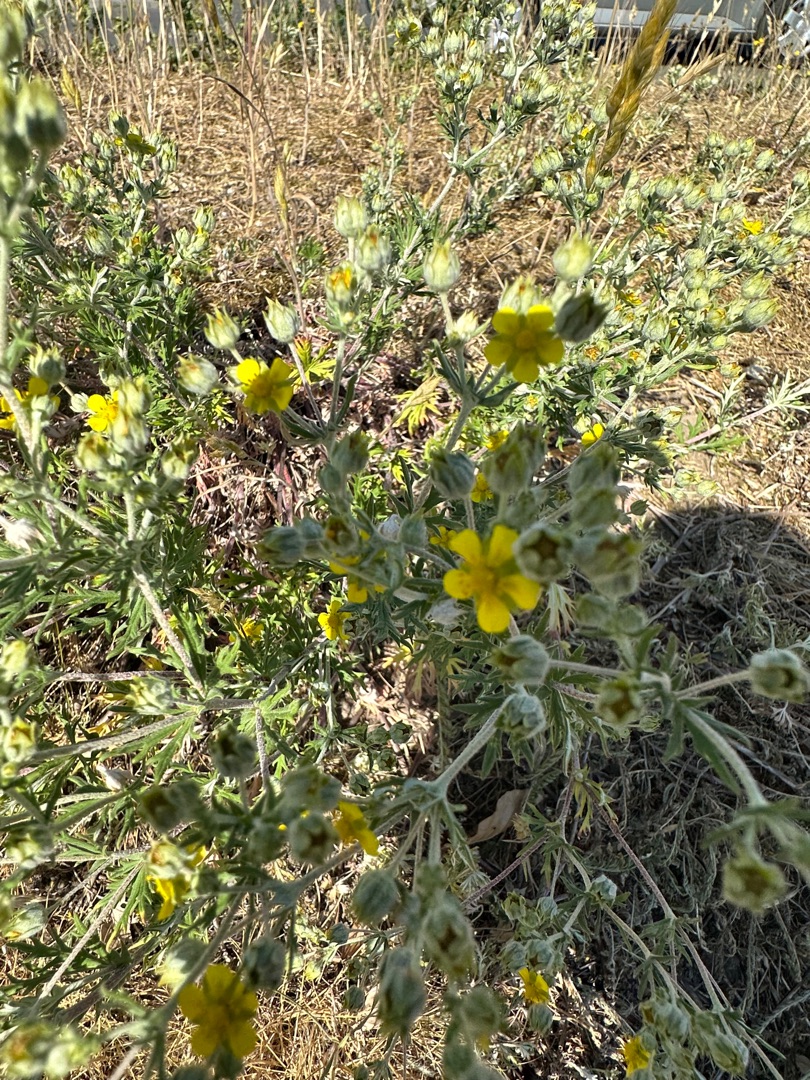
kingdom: Plantae
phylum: Tracheophyta
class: Magnoliopsida
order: Rosales
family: Rosaceae
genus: Potentilla
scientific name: Potentilla argentea
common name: Sølv-potentil
